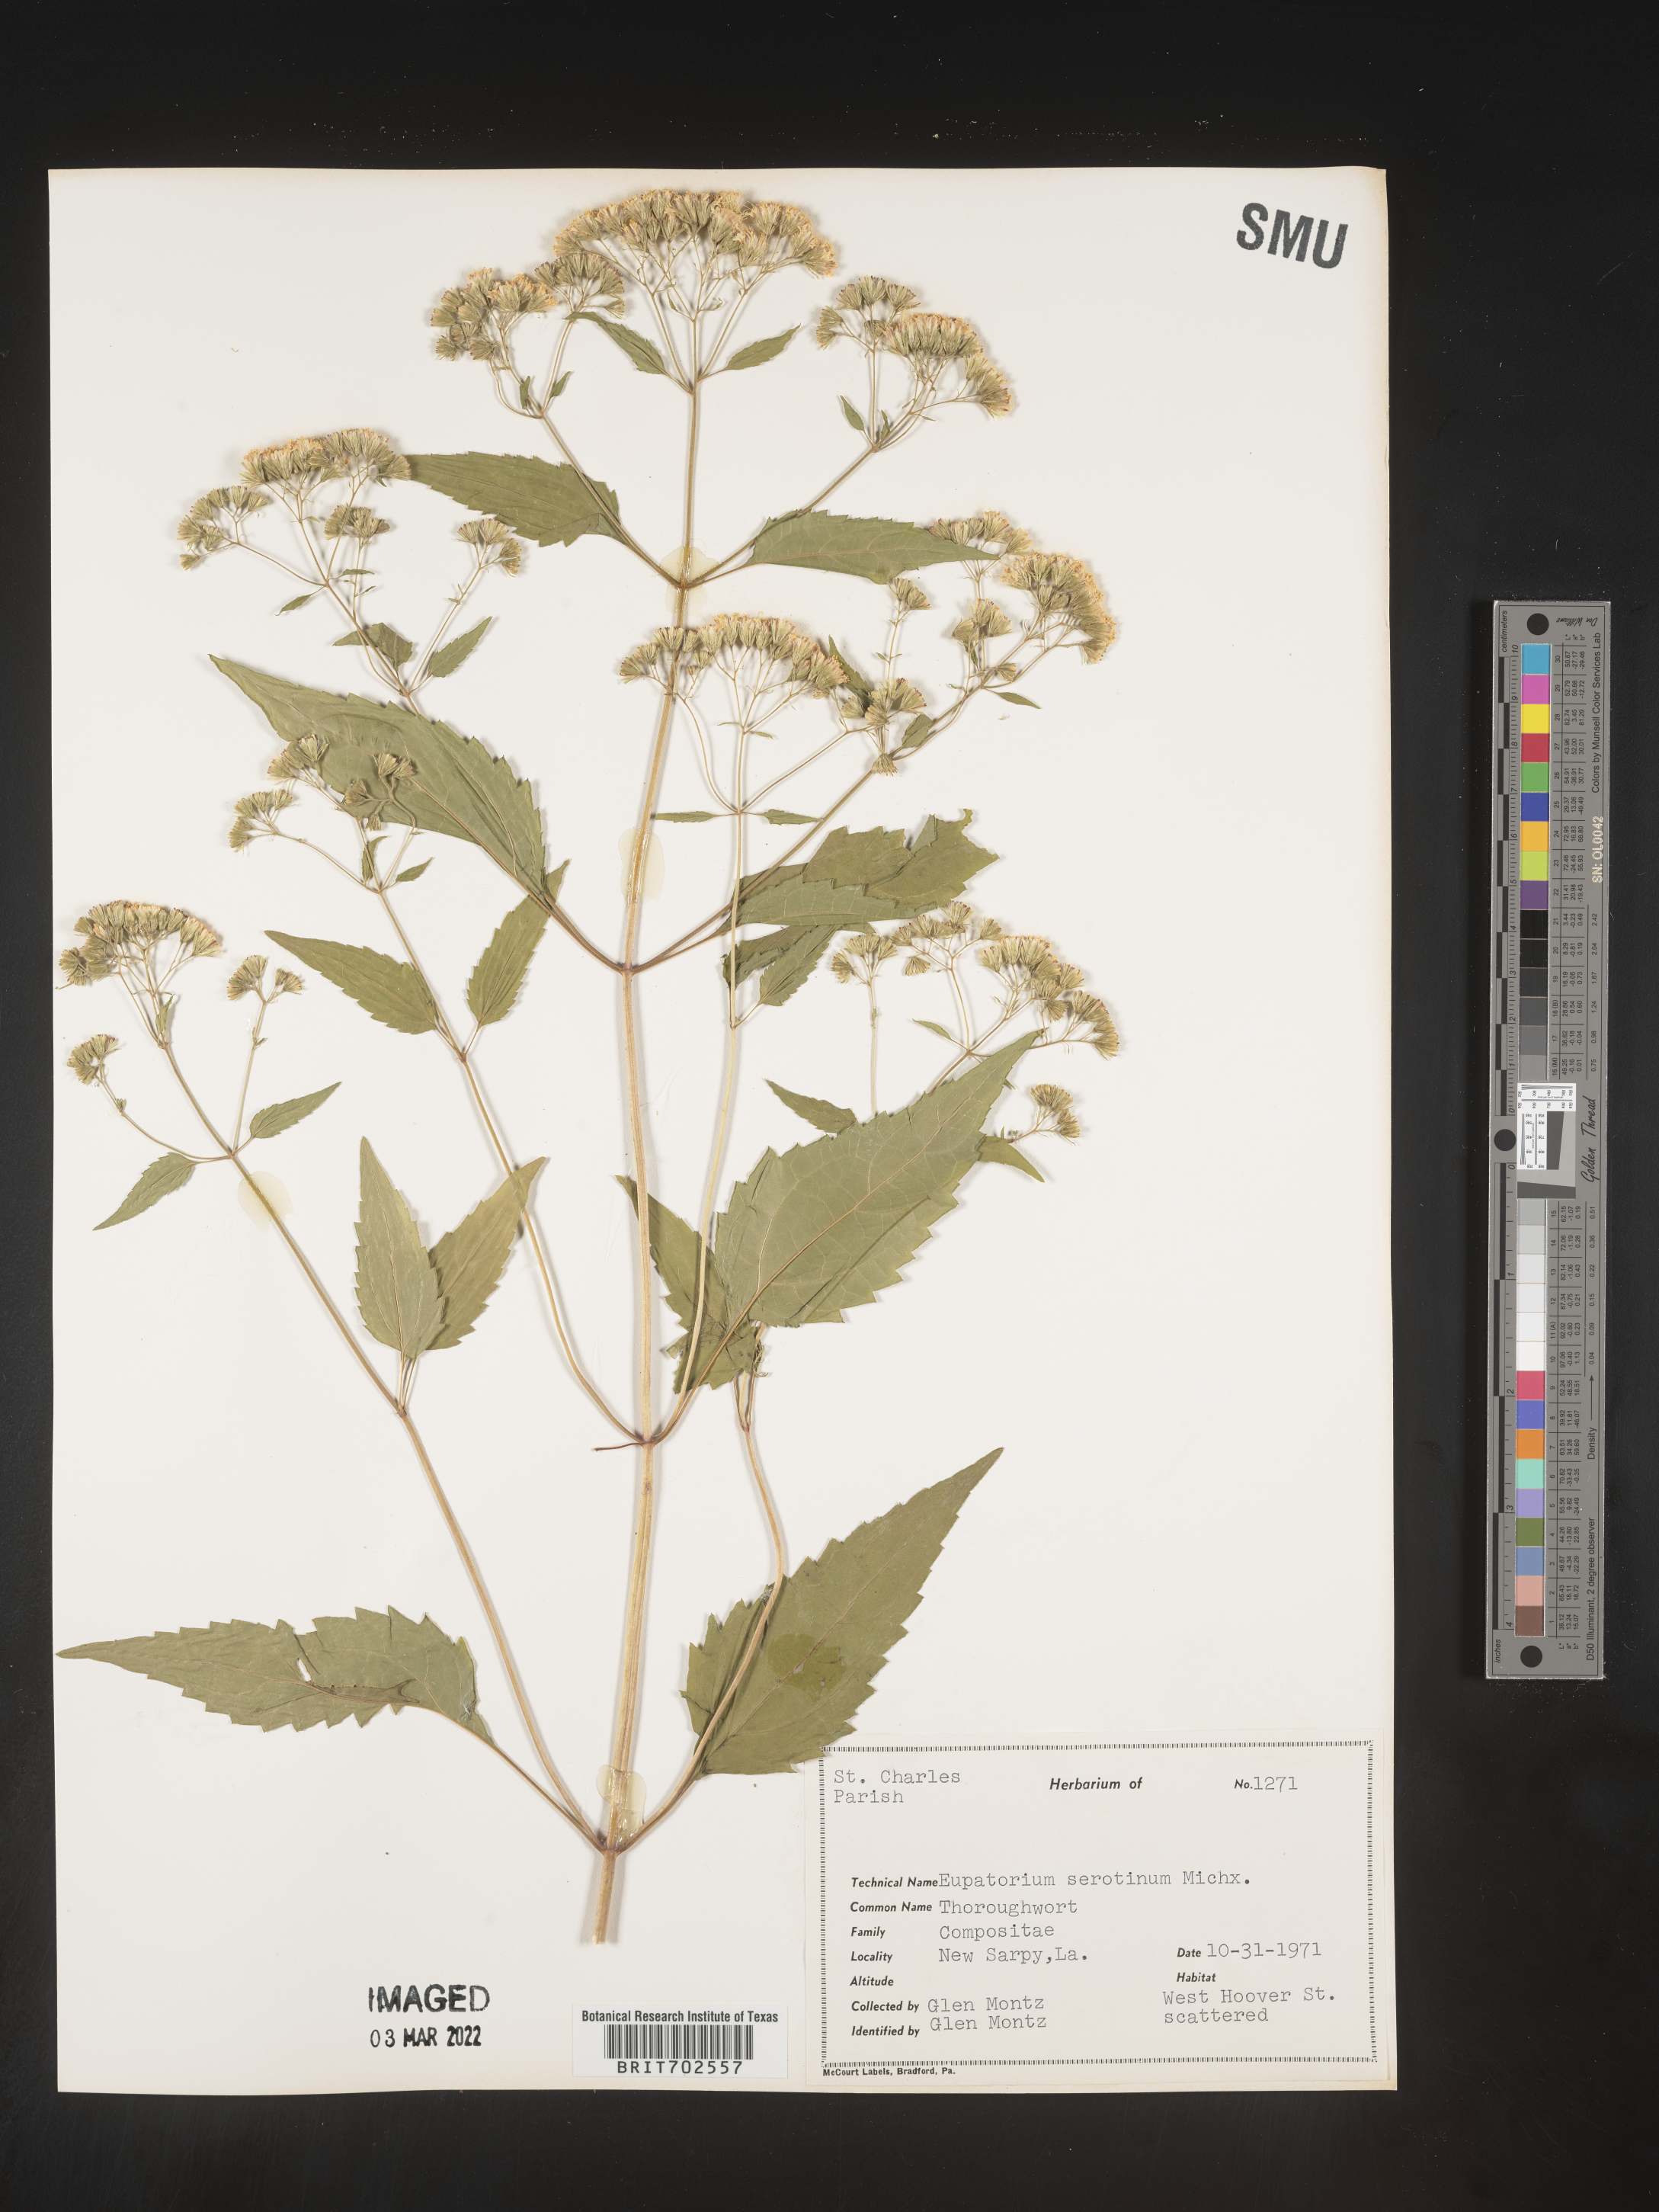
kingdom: Plantae
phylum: Tracheophyta
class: Magnoliopsida
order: Asterales
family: Asteraceae
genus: Eupatorium
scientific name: Eupatorium serotinum
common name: Late boneset
